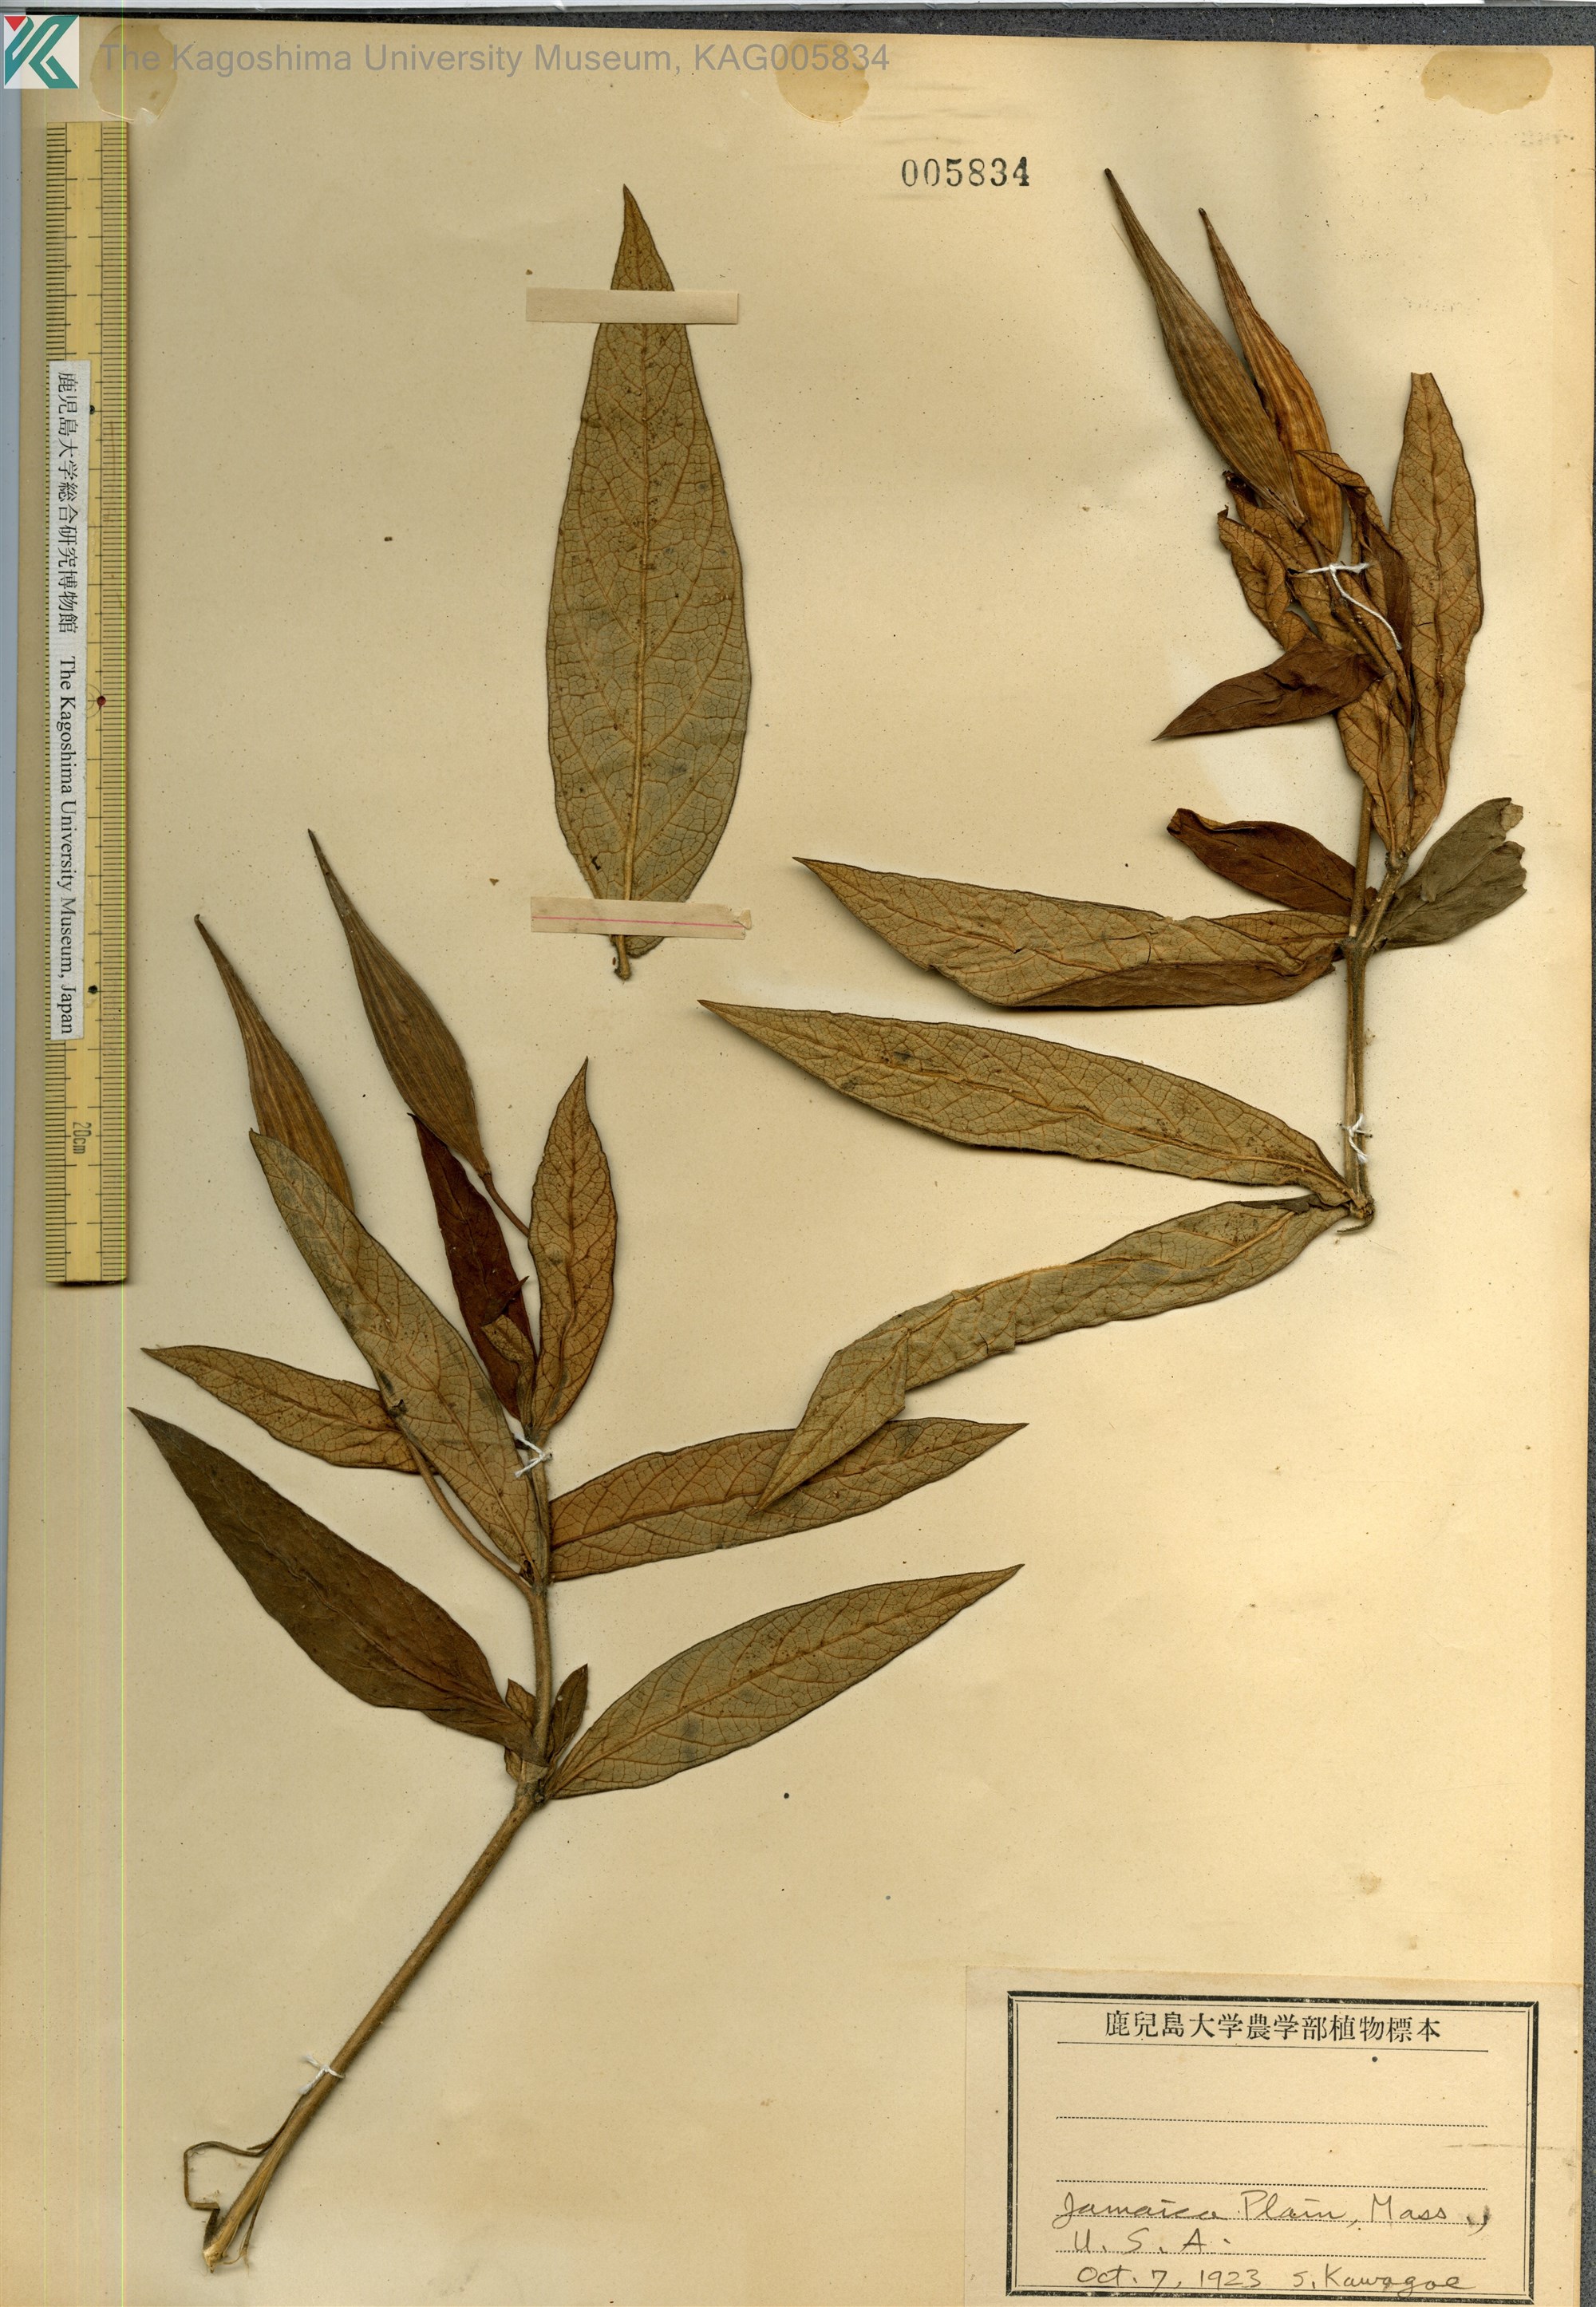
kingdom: Plantae
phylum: Tracheophyta
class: Magnoliopsida
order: Gentianales
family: Apocynaceae
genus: Asclepias
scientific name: Asclepias
